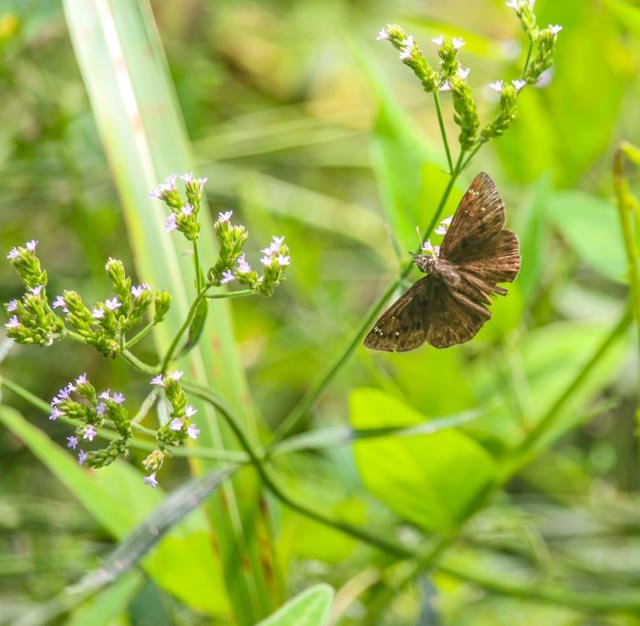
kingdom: Animalia
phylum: Arthropoda
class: Insecta
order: Lepidoptera
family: Hesperiidae
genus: Gesta
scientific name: Gesta
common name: Horace's Duskywing
